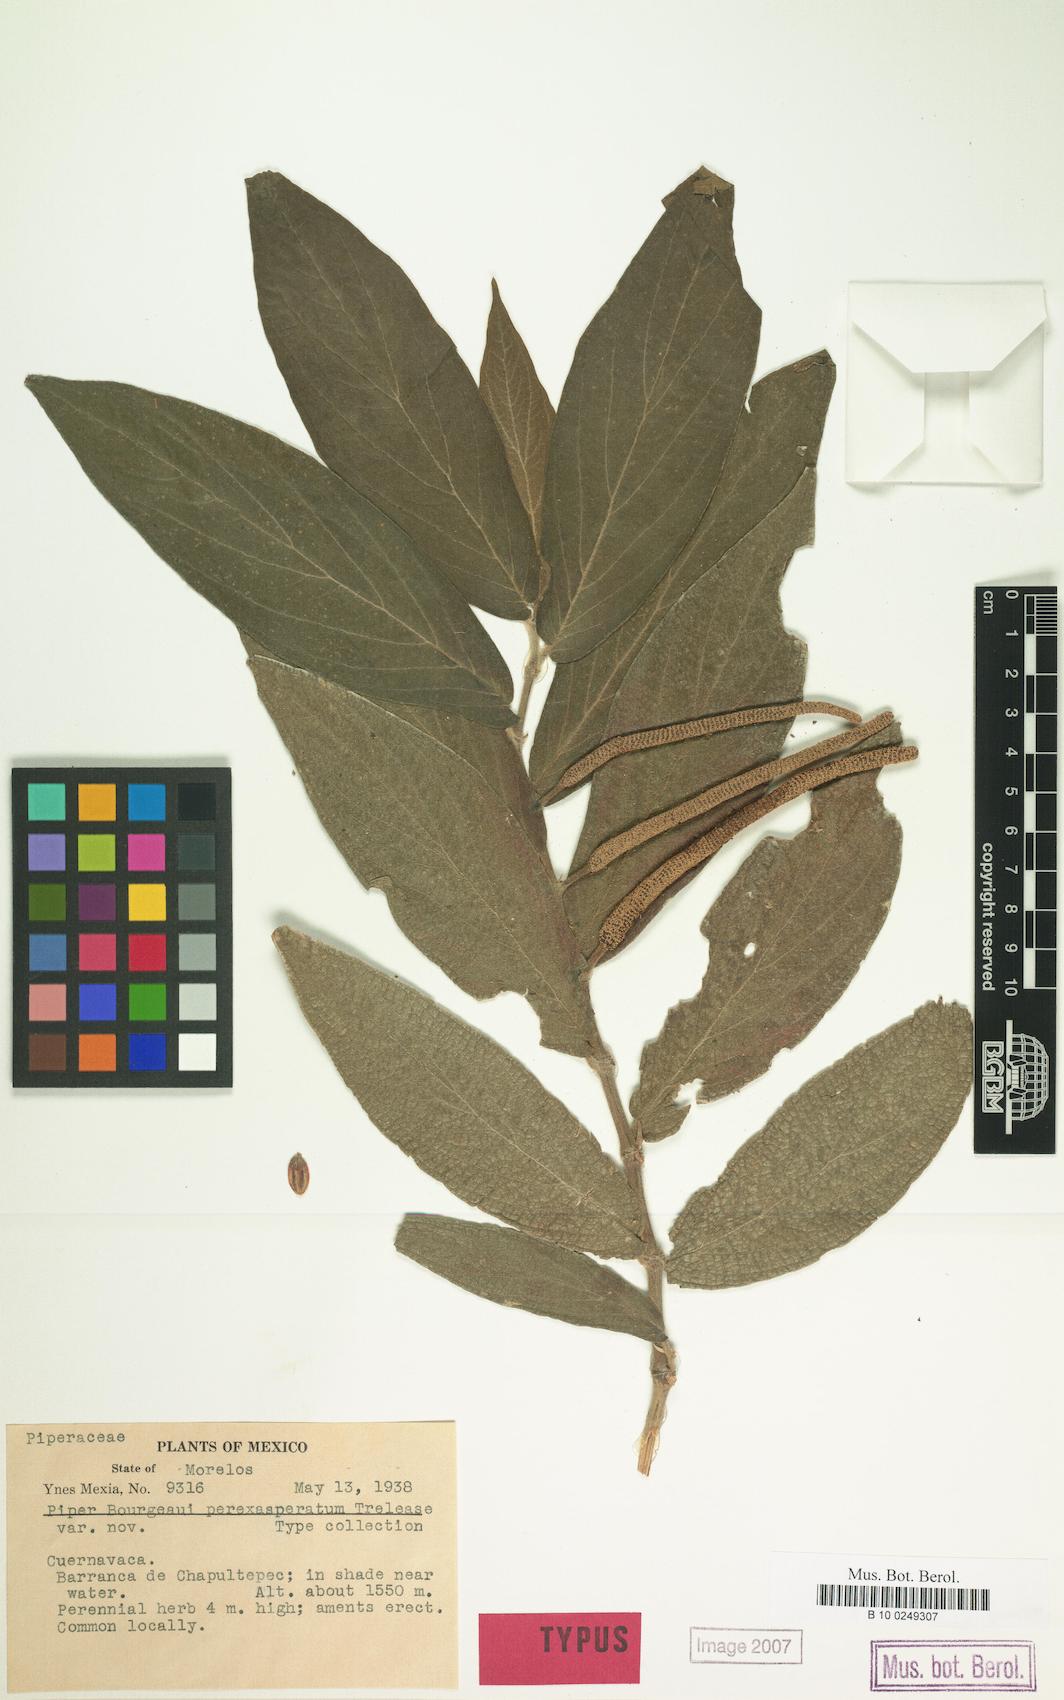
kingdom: Plantae
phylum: Tracheophyta
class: Magnoliopsida
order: Piperales
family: Piperaceae
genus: Piper
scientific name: Piper bourgeaui
